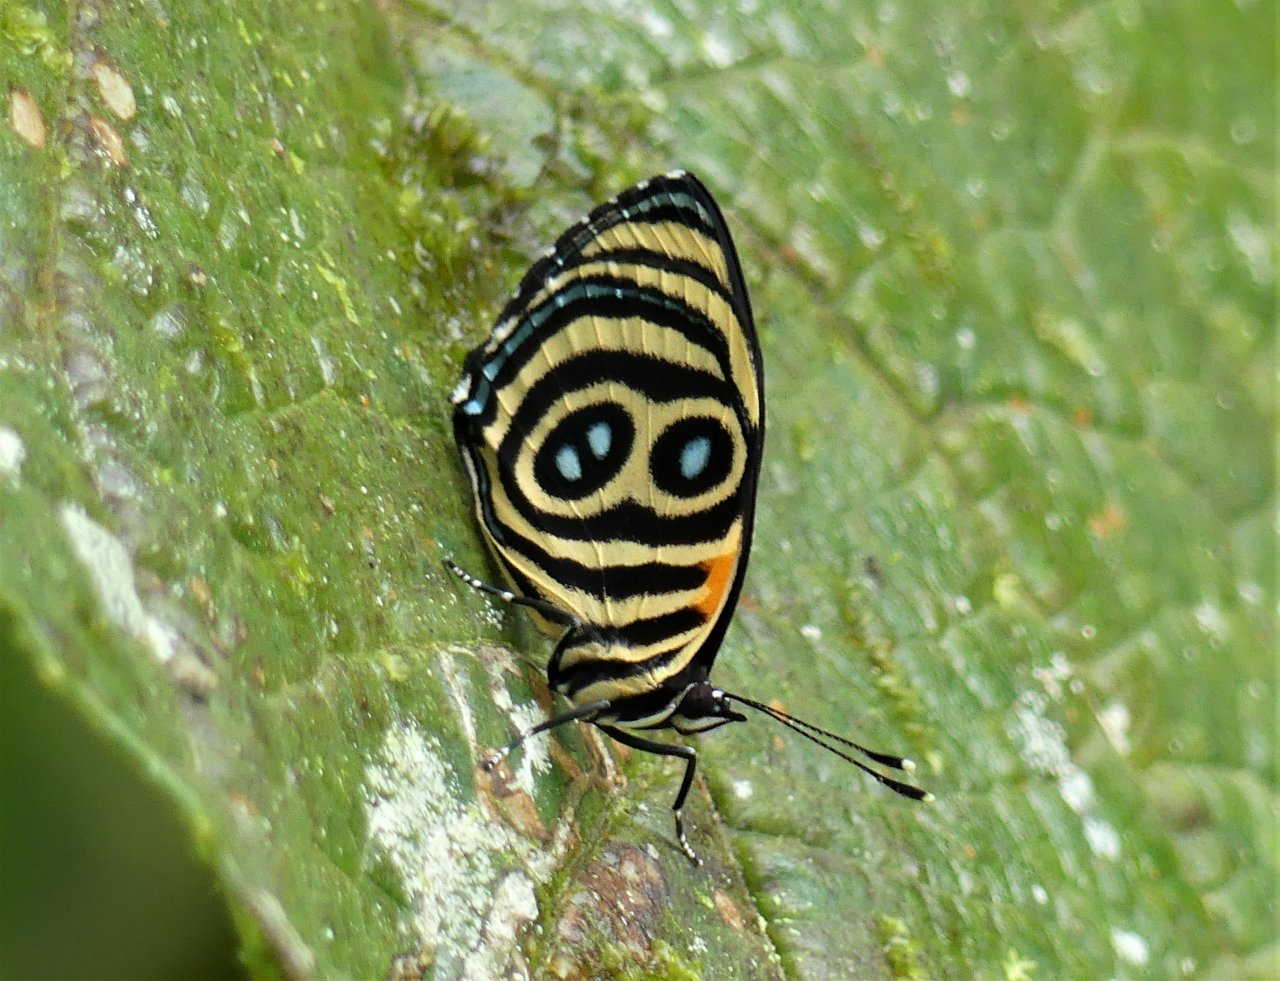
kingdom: Animalia
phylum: Arthropoda
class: Insecta
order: Lepidoptera
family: Nymphalidae
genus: Catagramma
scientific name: Catagramma Callicore tolima
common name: Blue-and-orange Eighty-eight
